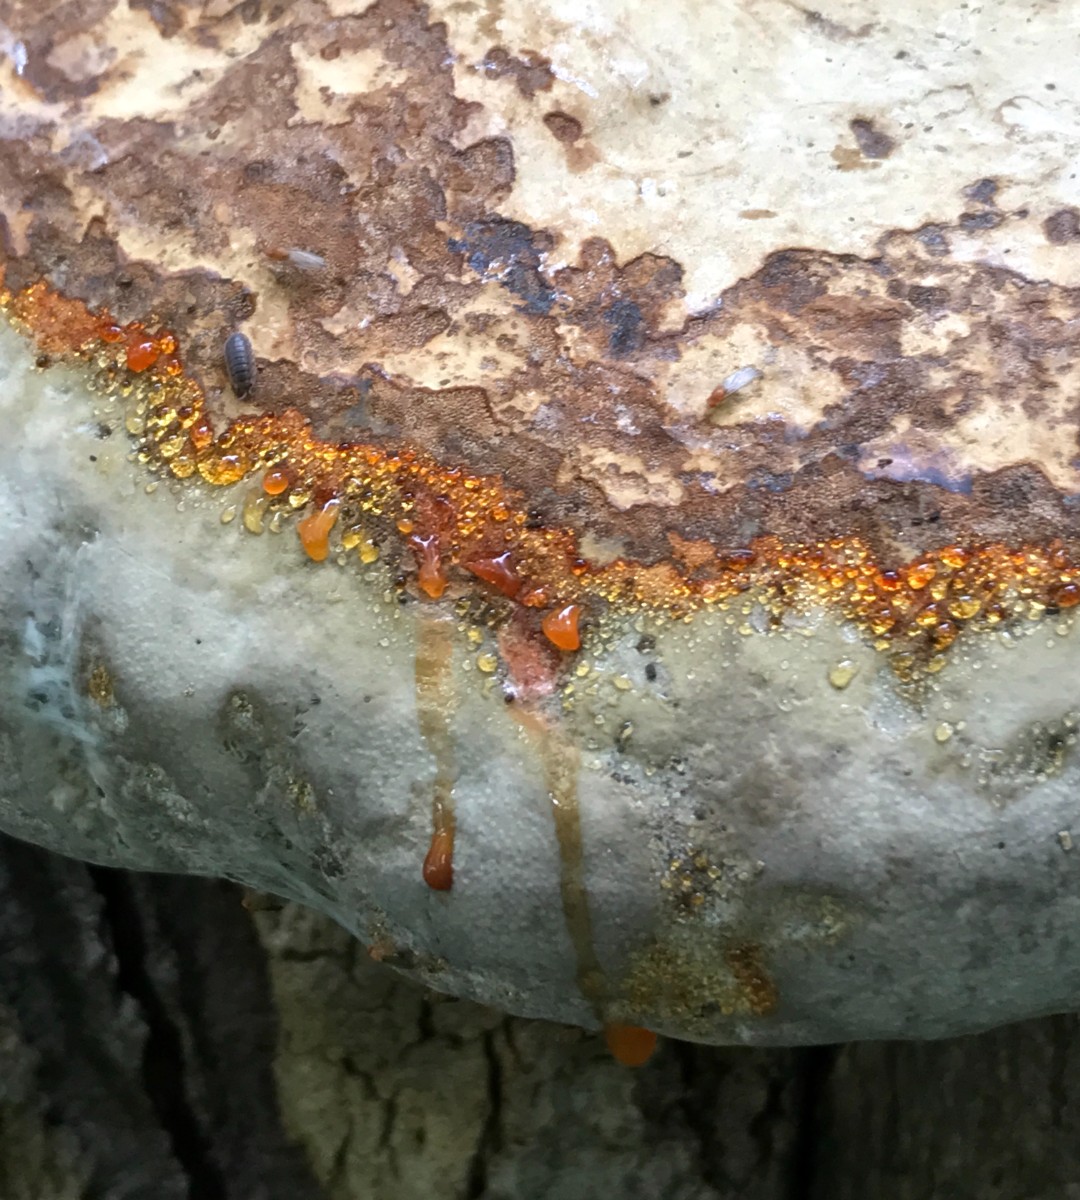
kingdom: Fungi
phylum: Basidiomycota
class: Agaricomycetes
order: Polyporales
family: Polyporaceae
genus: Fomes
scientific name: Fomes fomentarius
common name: tøndersvamp
